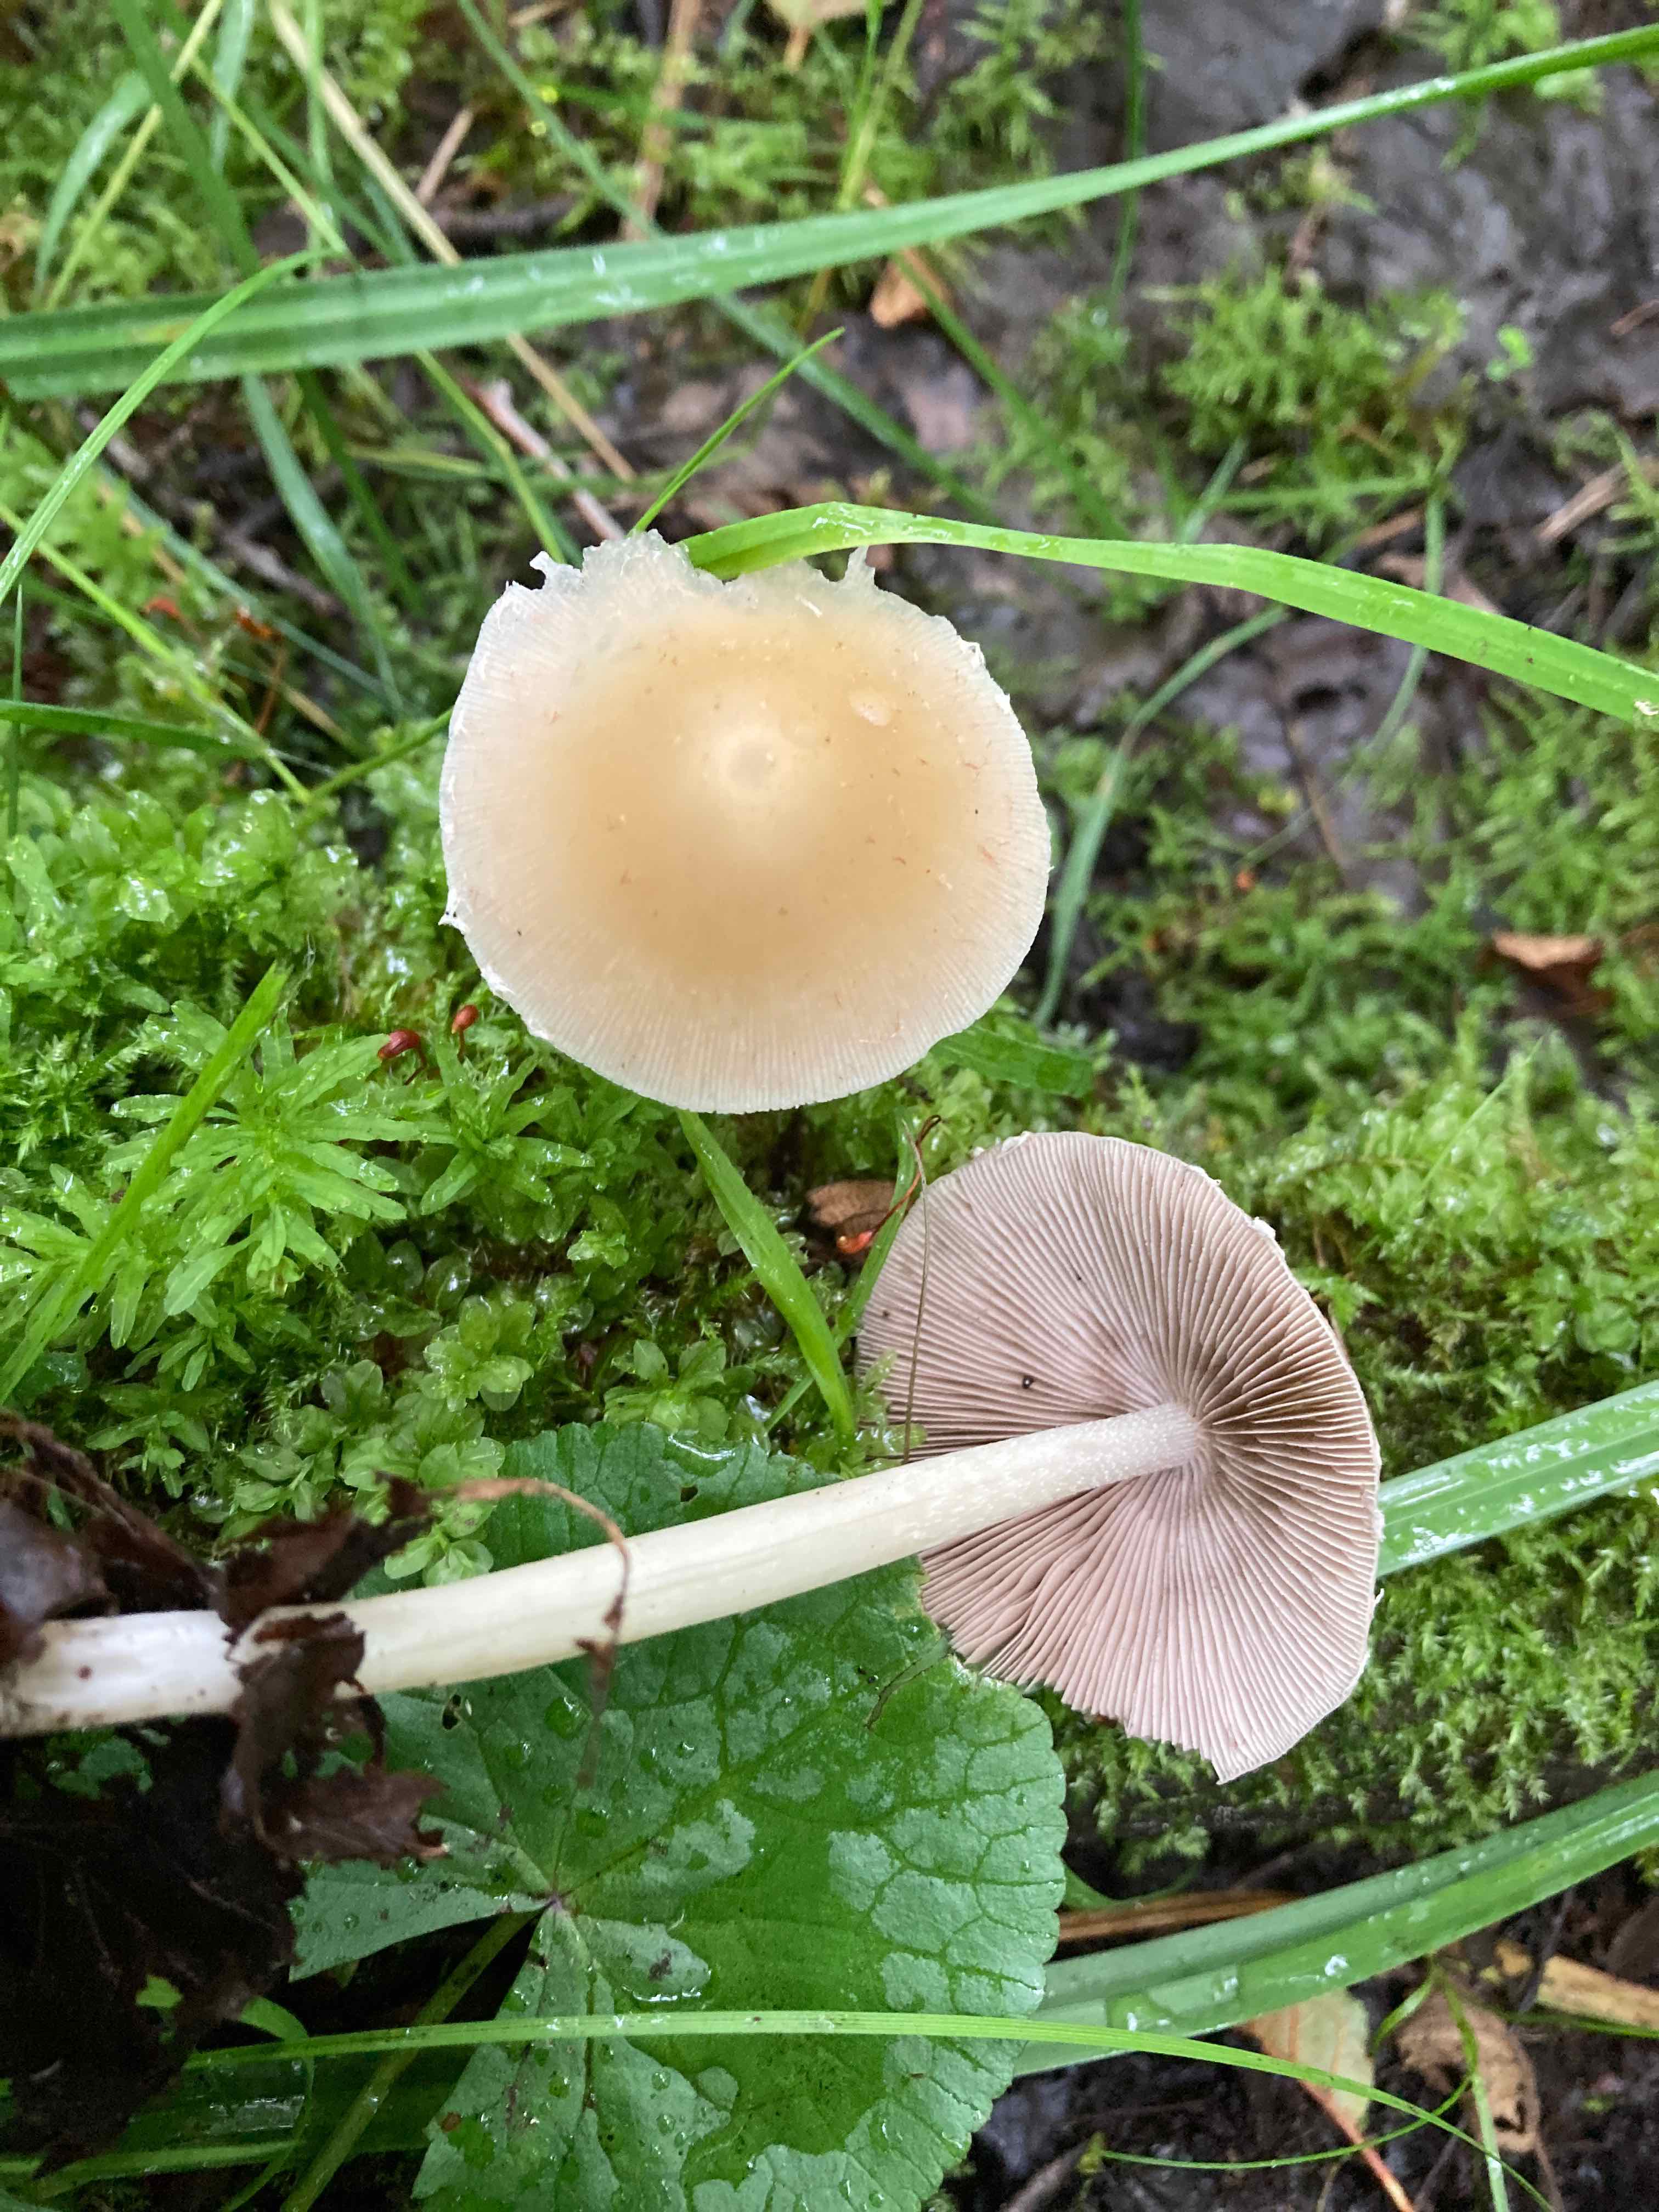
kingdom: Fungi
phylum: Basidiomycota
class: Agaricomycetes
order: Agaricales
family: Psathyrellaceae
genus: Candolleomyces
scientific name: Candolleomyces candolleanus
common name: Candolles mørkhat
